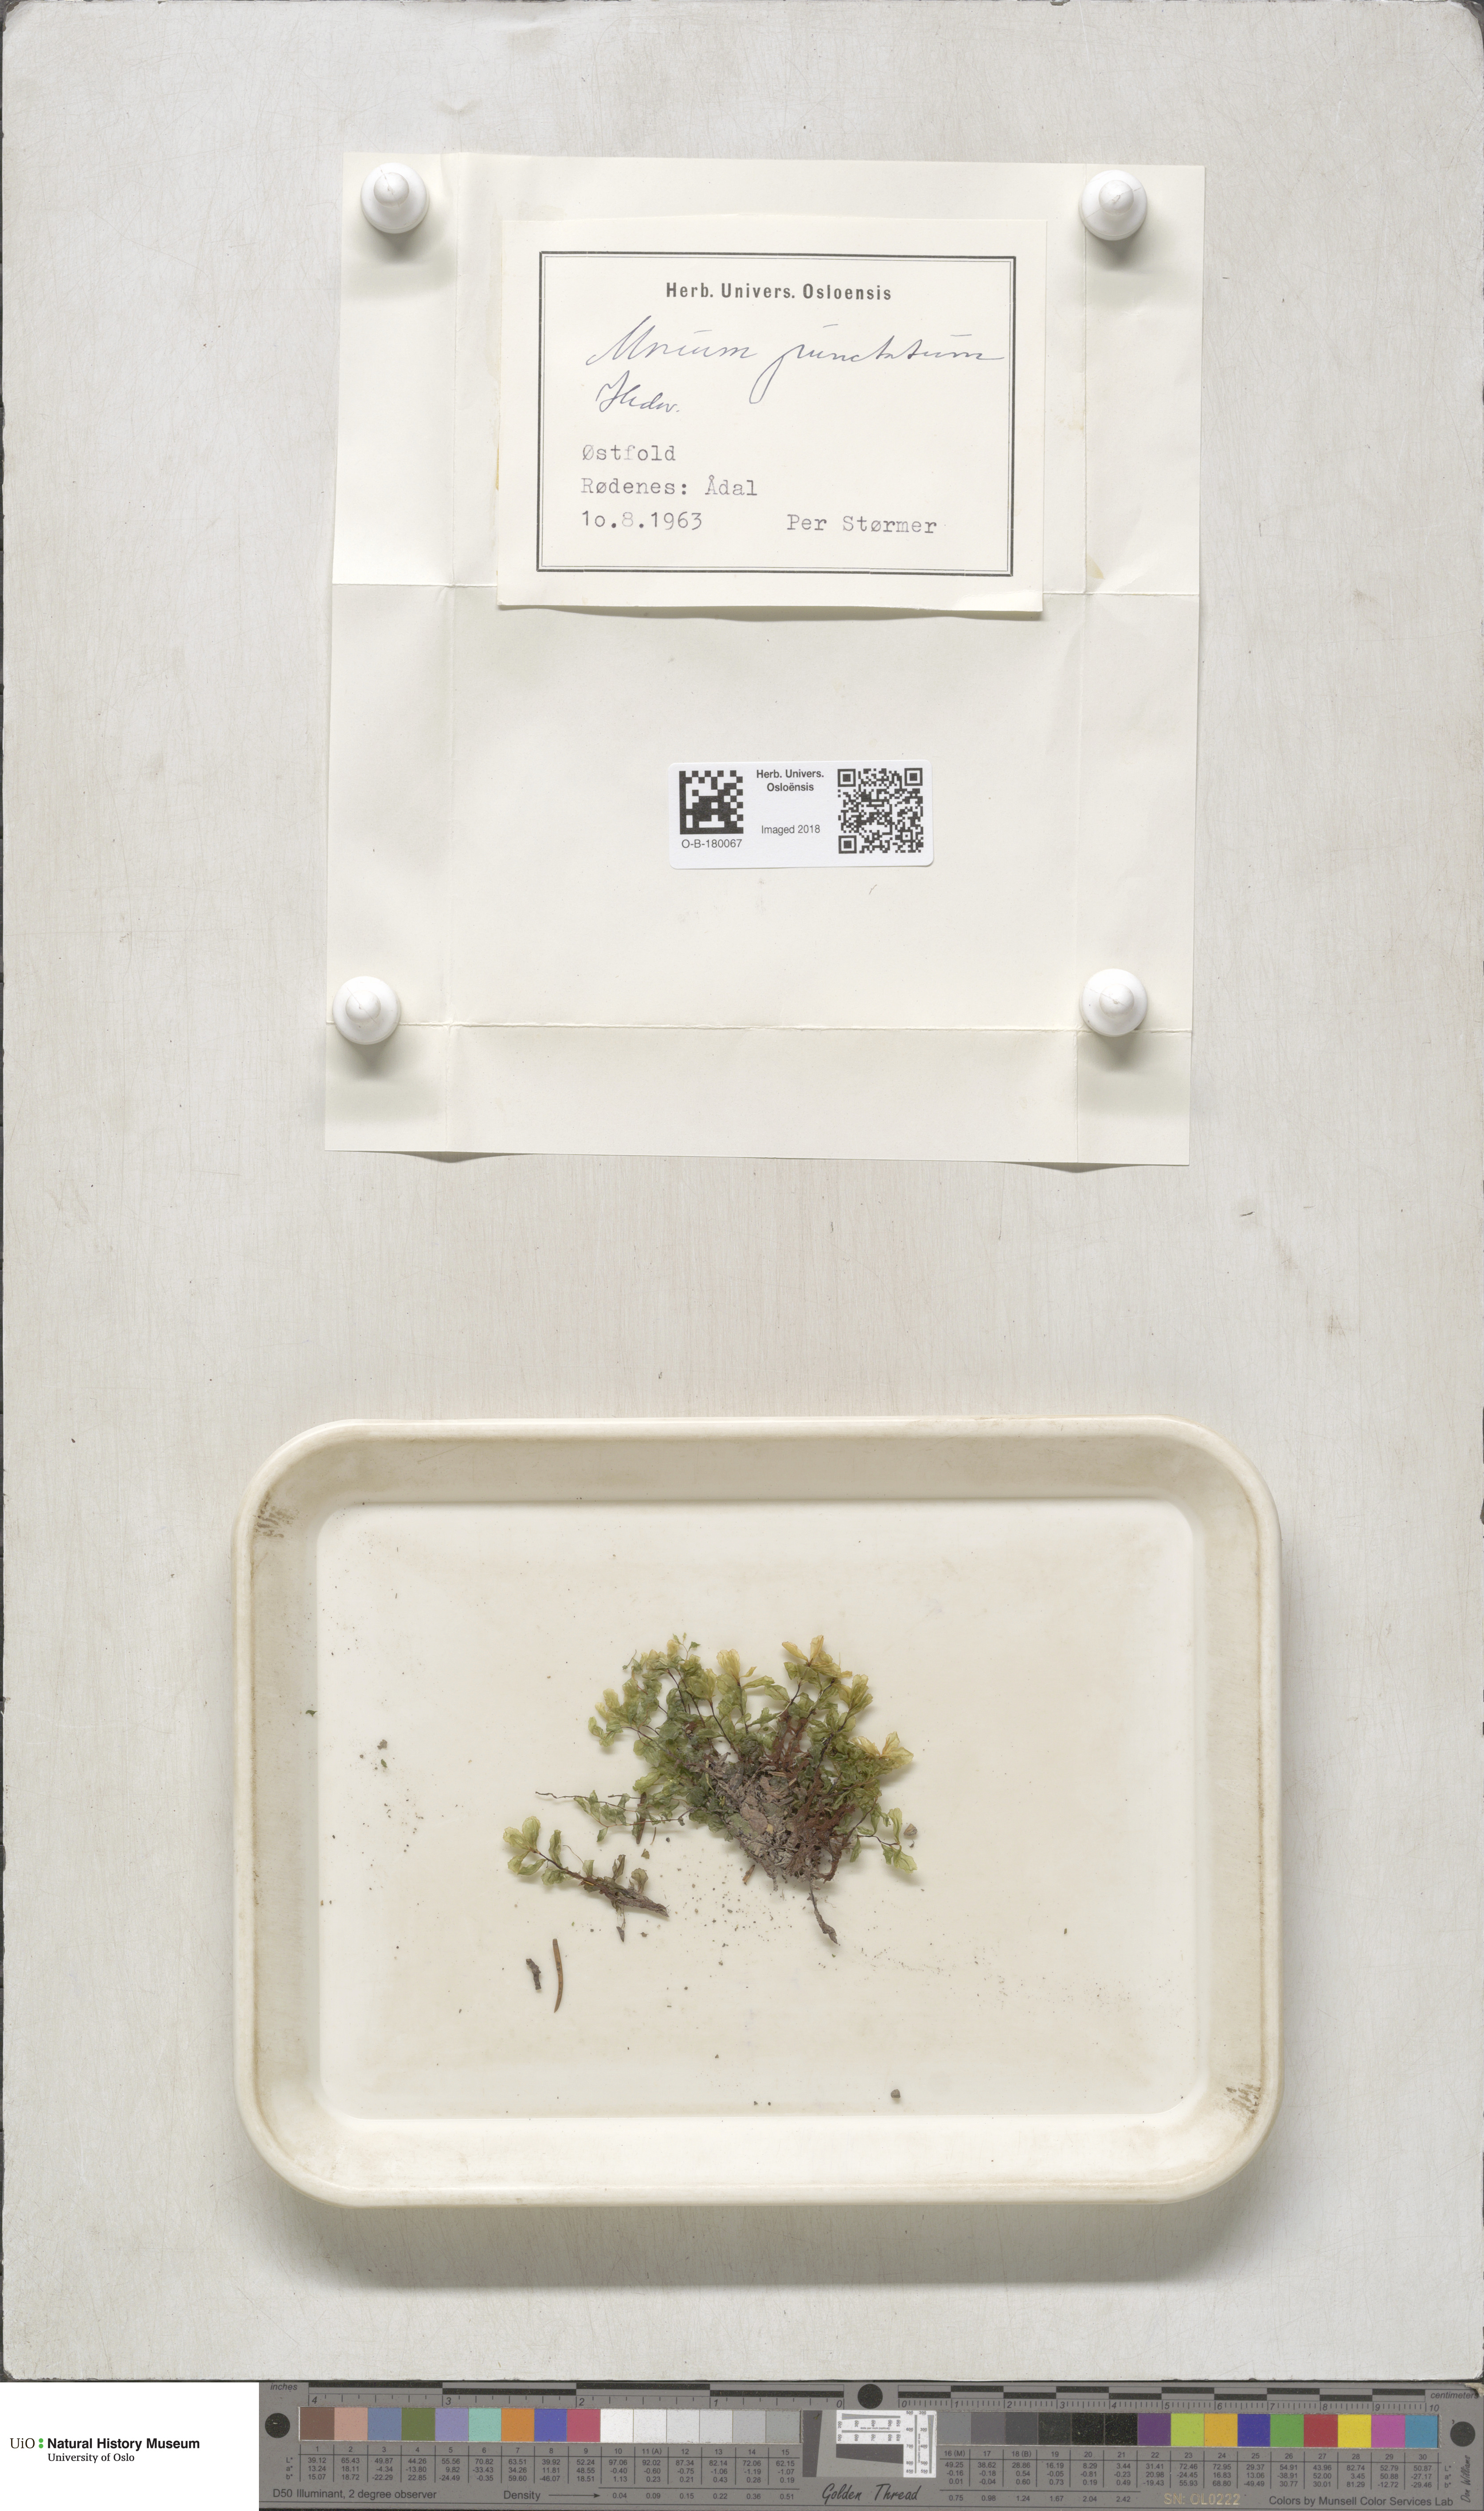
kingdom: Plantae
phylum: Bryophyta
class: Bryopsida
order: Bryales
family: Mniaceae
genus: Rhizomnium
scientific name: Rhizomnium punctatum
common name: Dotted leafy moss
